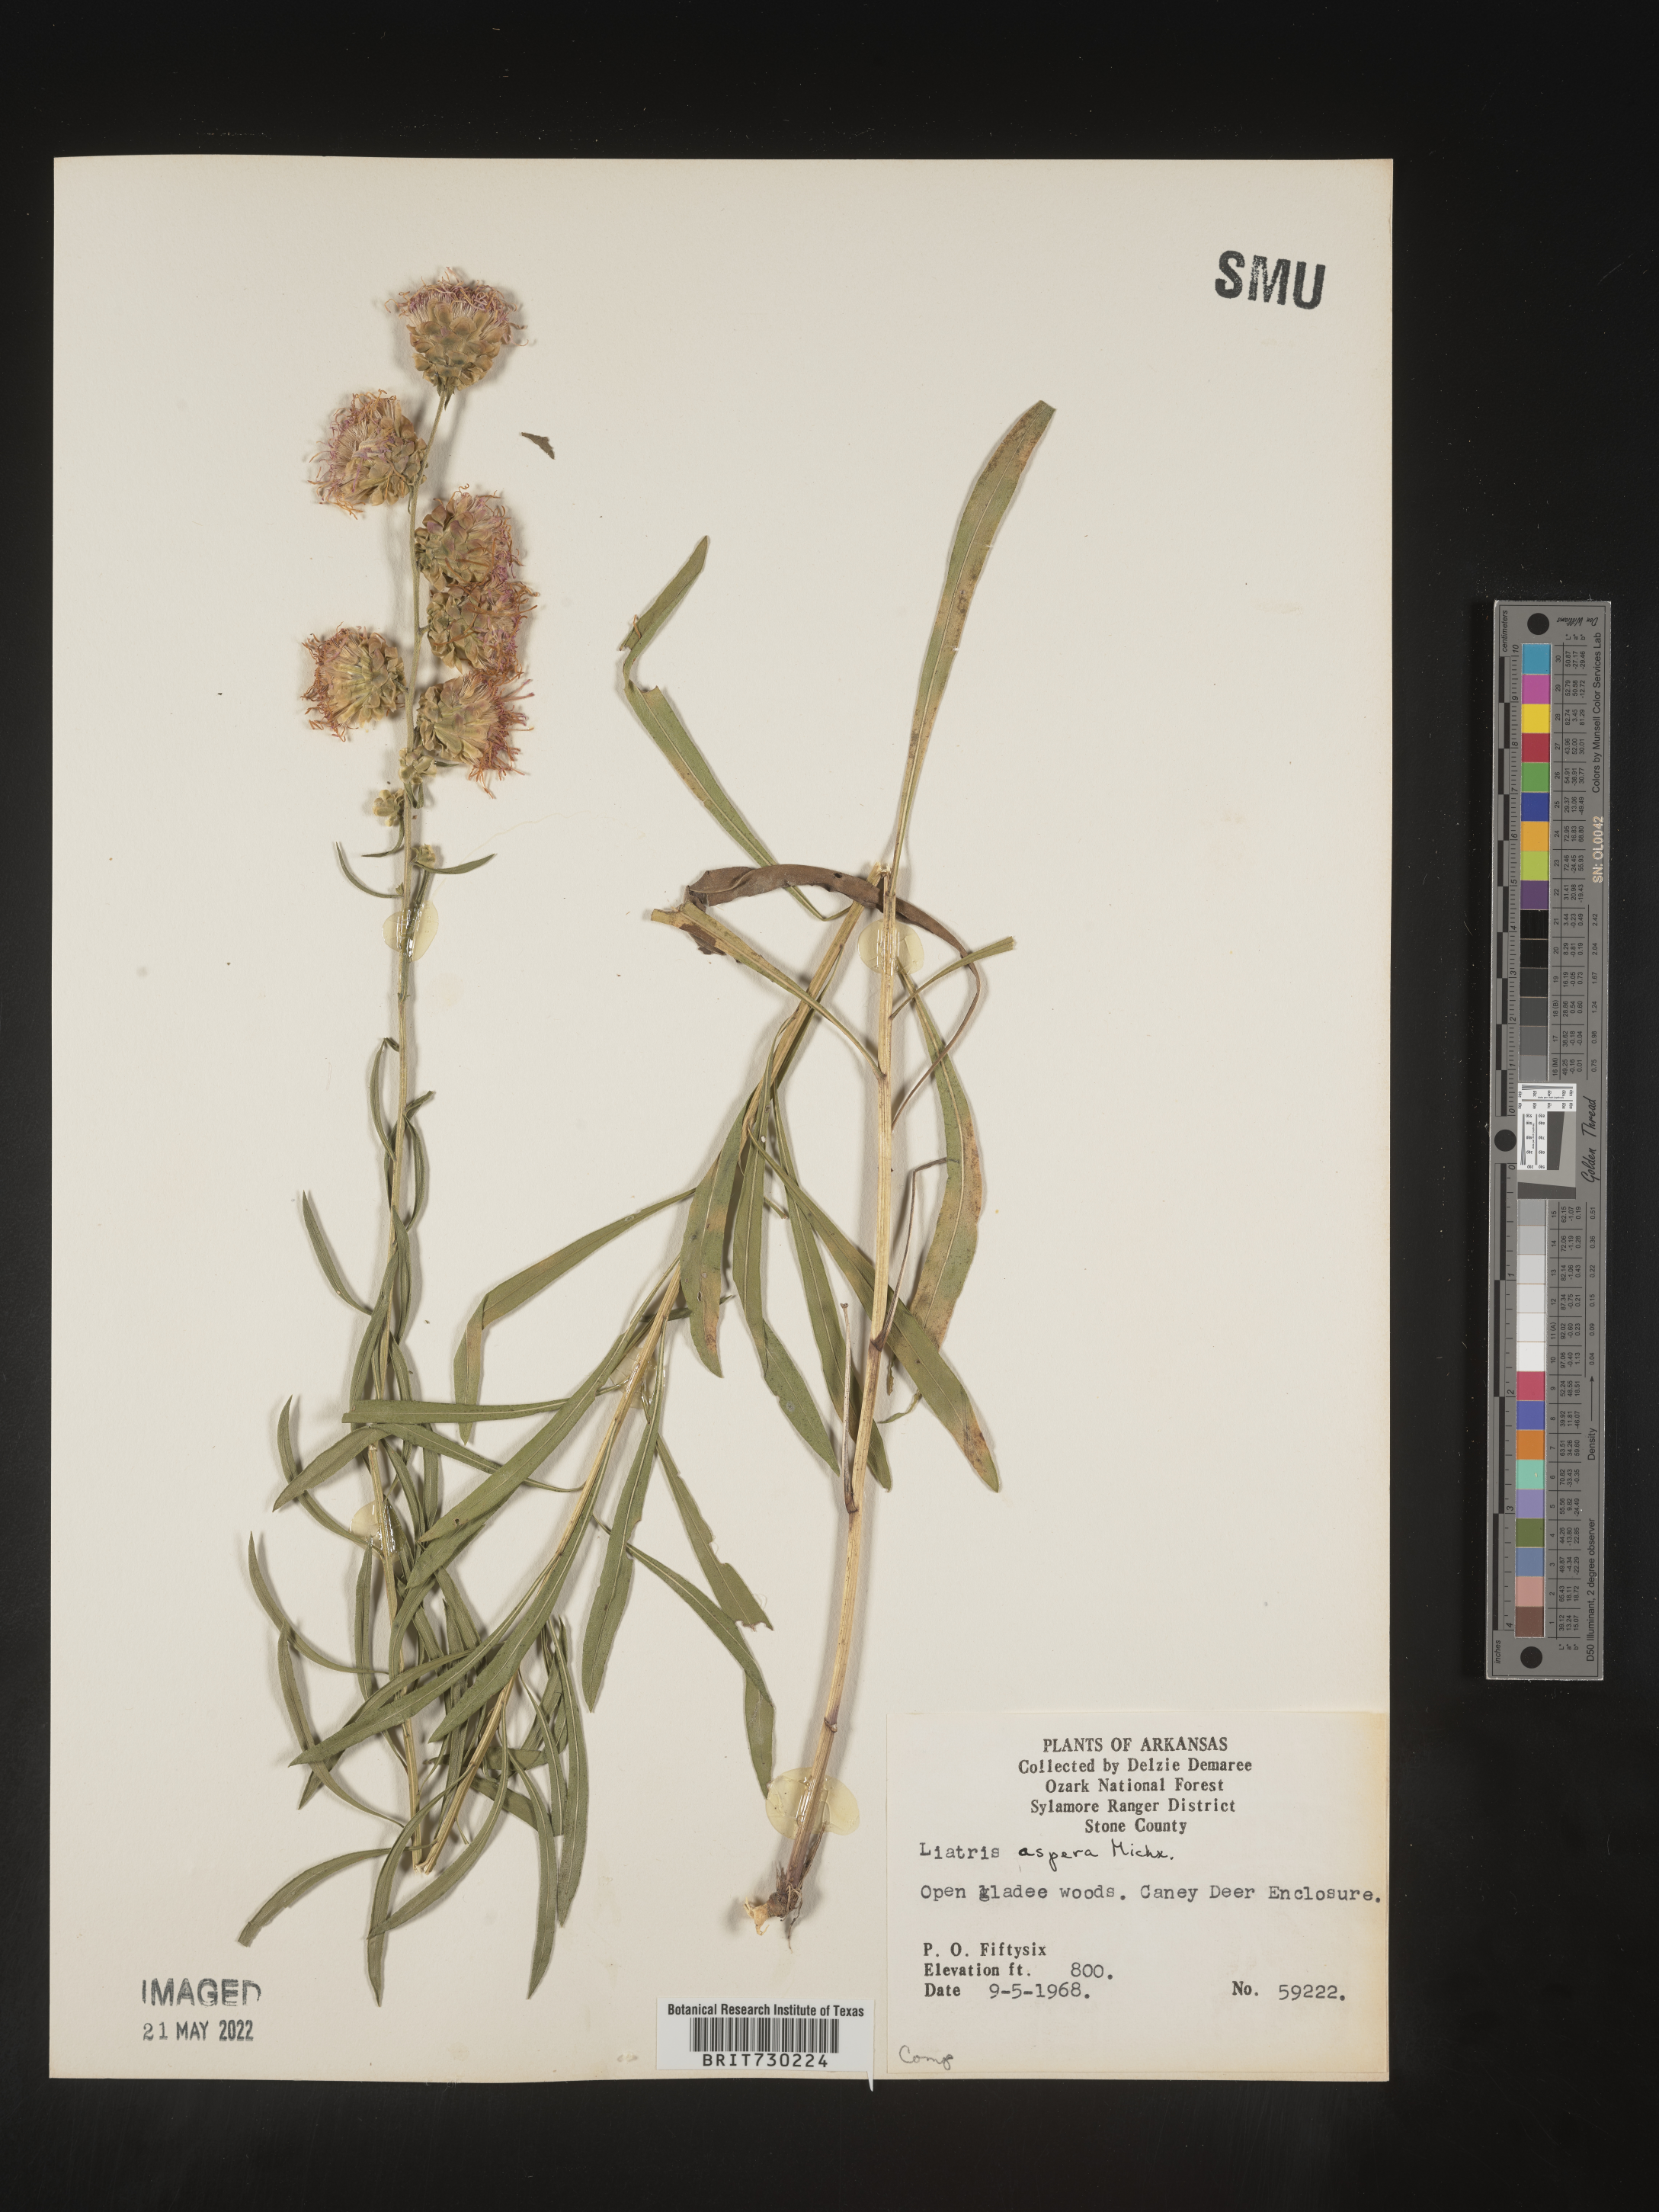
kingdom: Plantae
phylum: Tracheophyta
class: Magnoliopsida
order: Asterales
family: Asteraceae
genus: Liatris
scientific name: Liatris aspera
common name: Lacerate blazing-star
